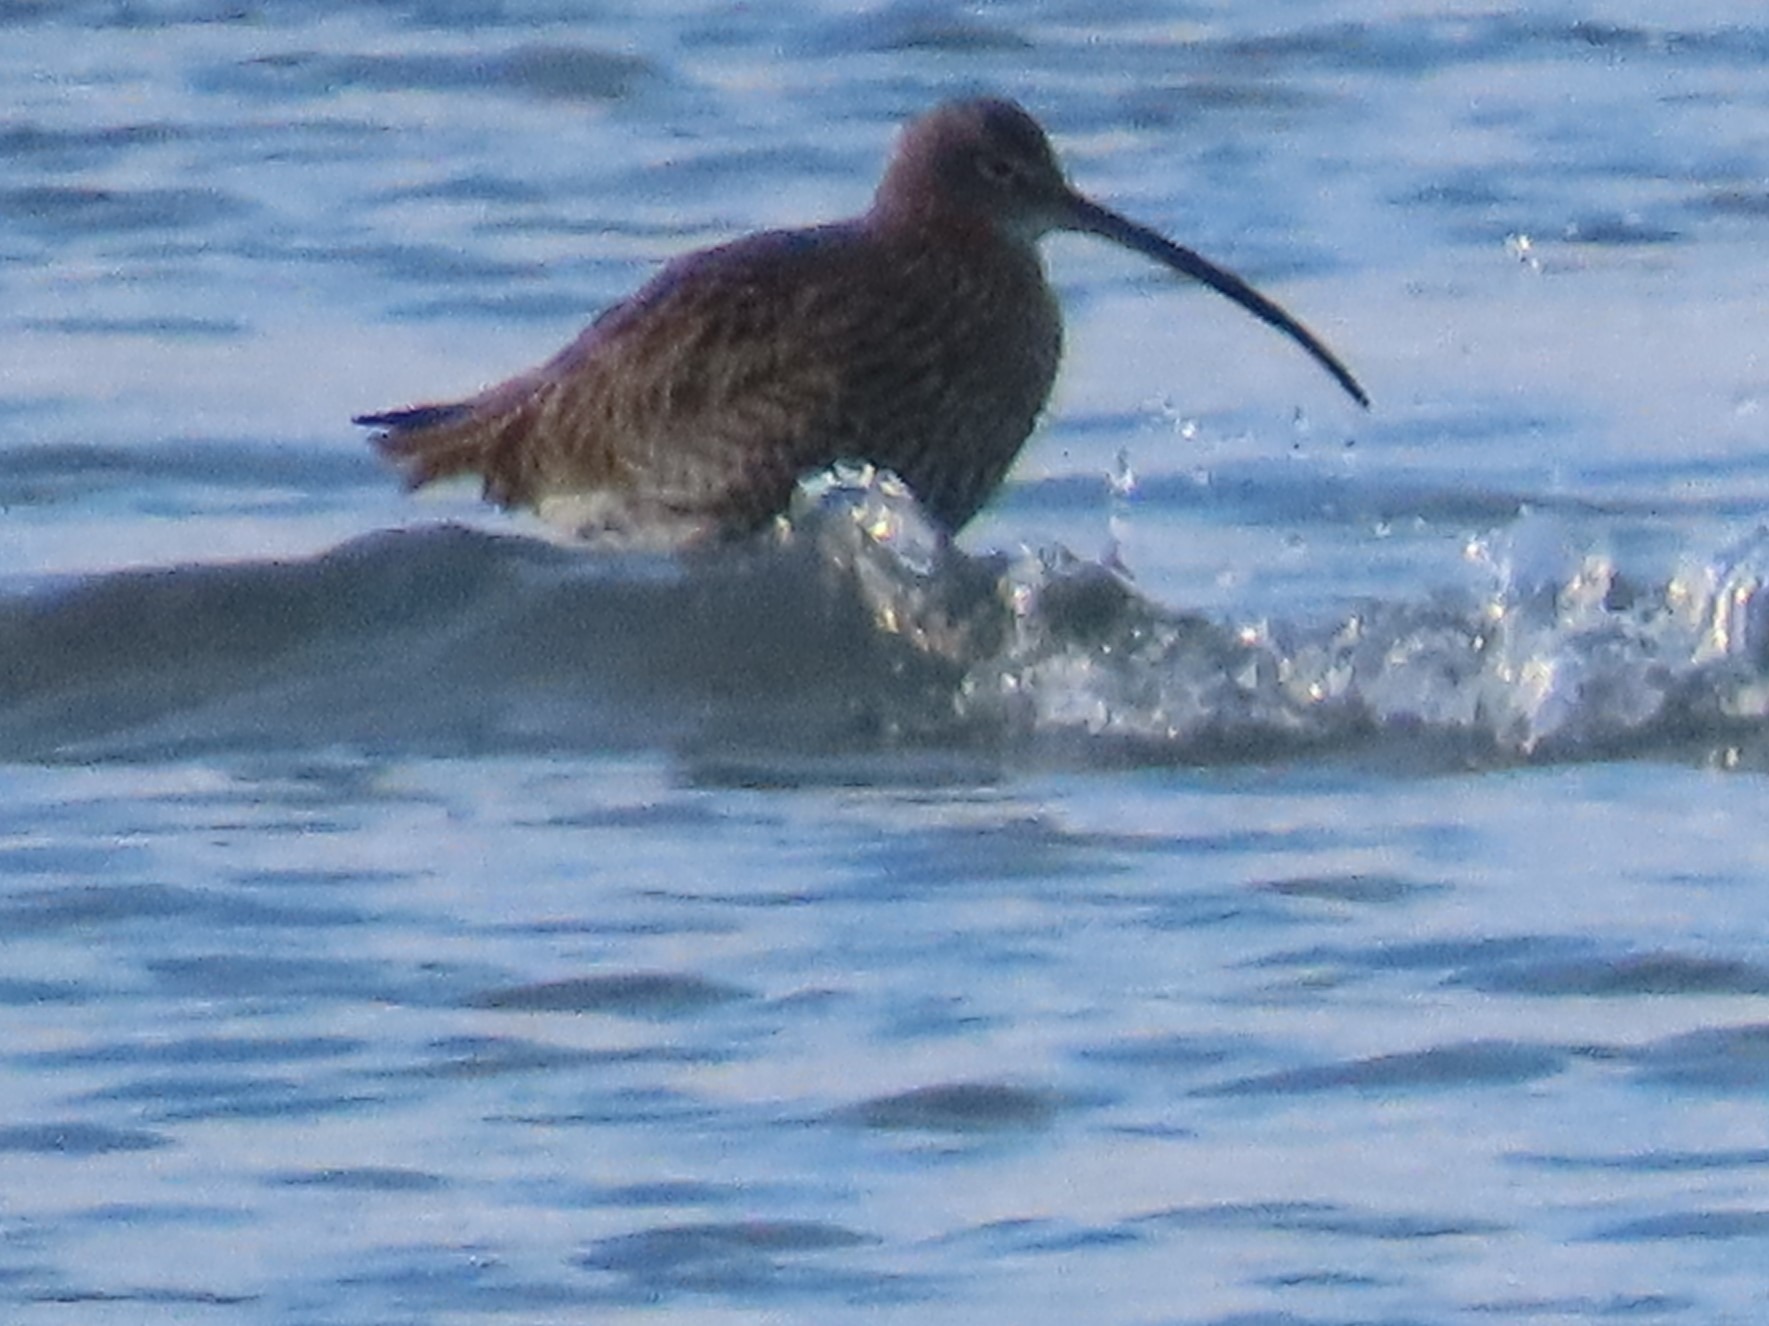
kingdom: Animalia
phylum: Chordata
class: Aves
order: Charadriiformes
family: Scolopacidae
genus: Numenius
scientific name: Numenius arquata
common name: Storspove
